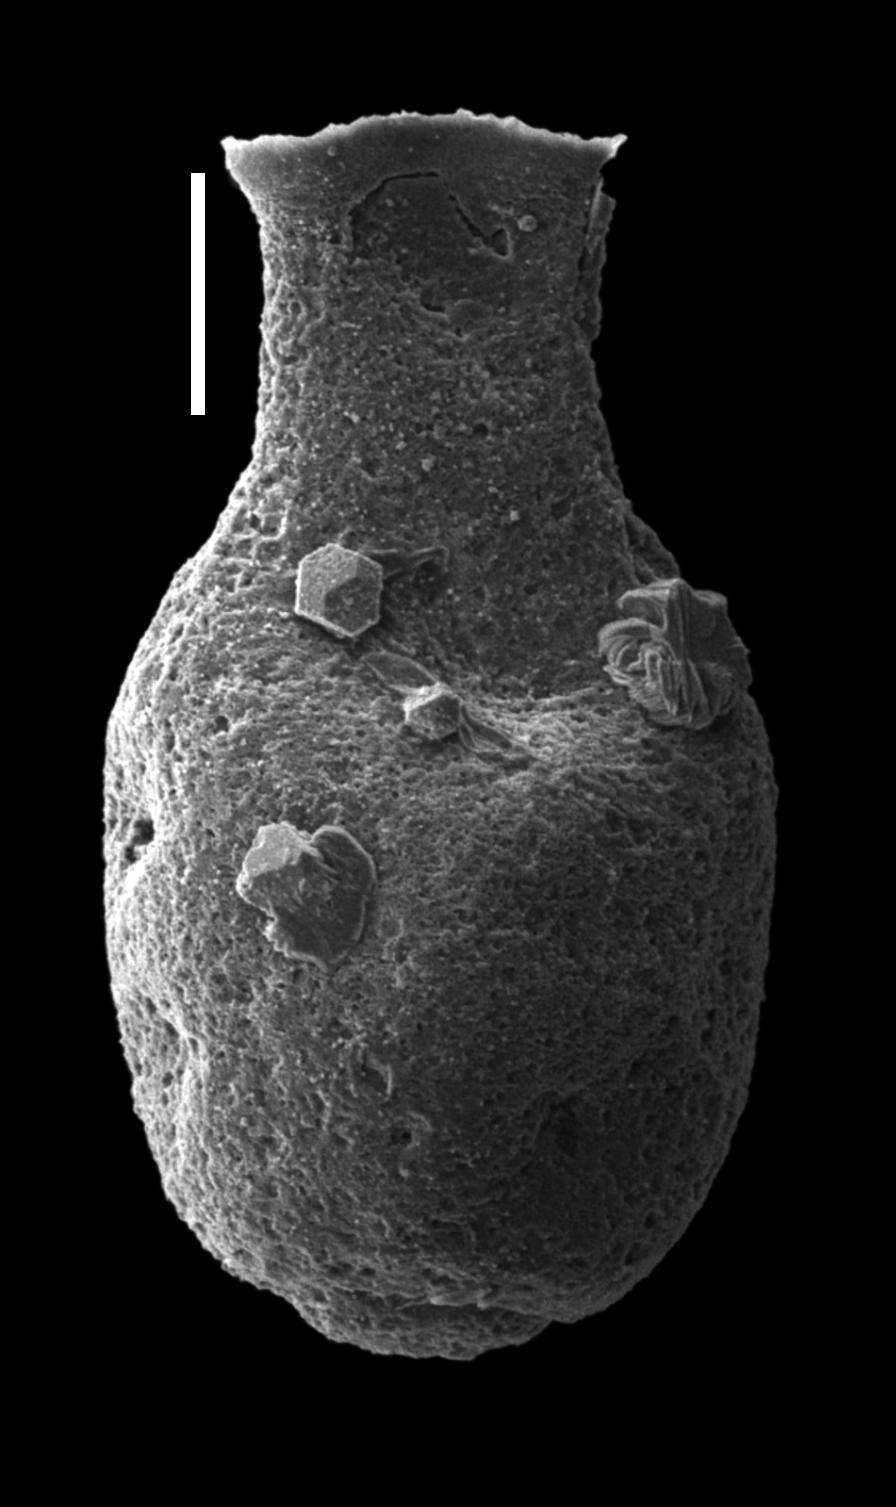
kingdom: Animalia
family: Lagenochitinidae
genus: Lagenochitina
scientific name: Lagenochitina
